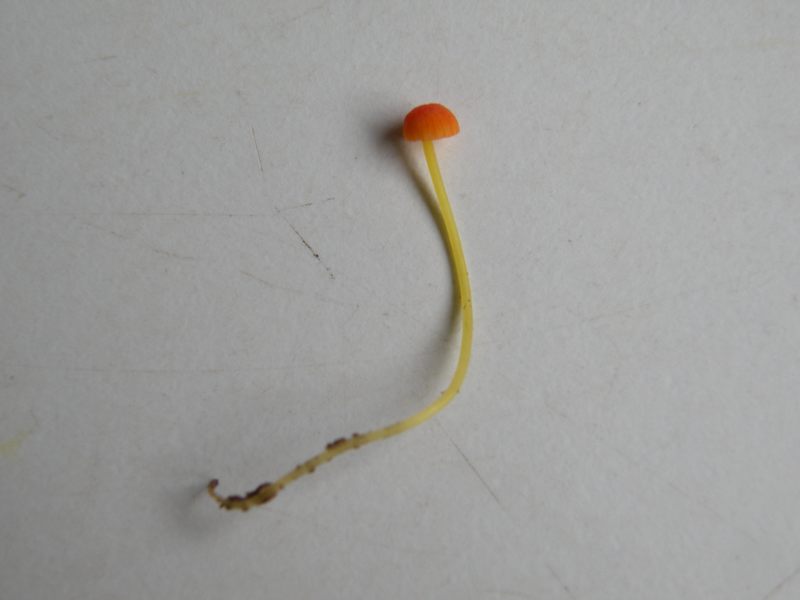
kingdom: Fungi
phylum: Basidiomycota
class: Agaricomycetes
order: Agaricales
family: Mycenaceae
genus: Mycena
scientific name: Mycena acicula
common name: orange huesvamp
